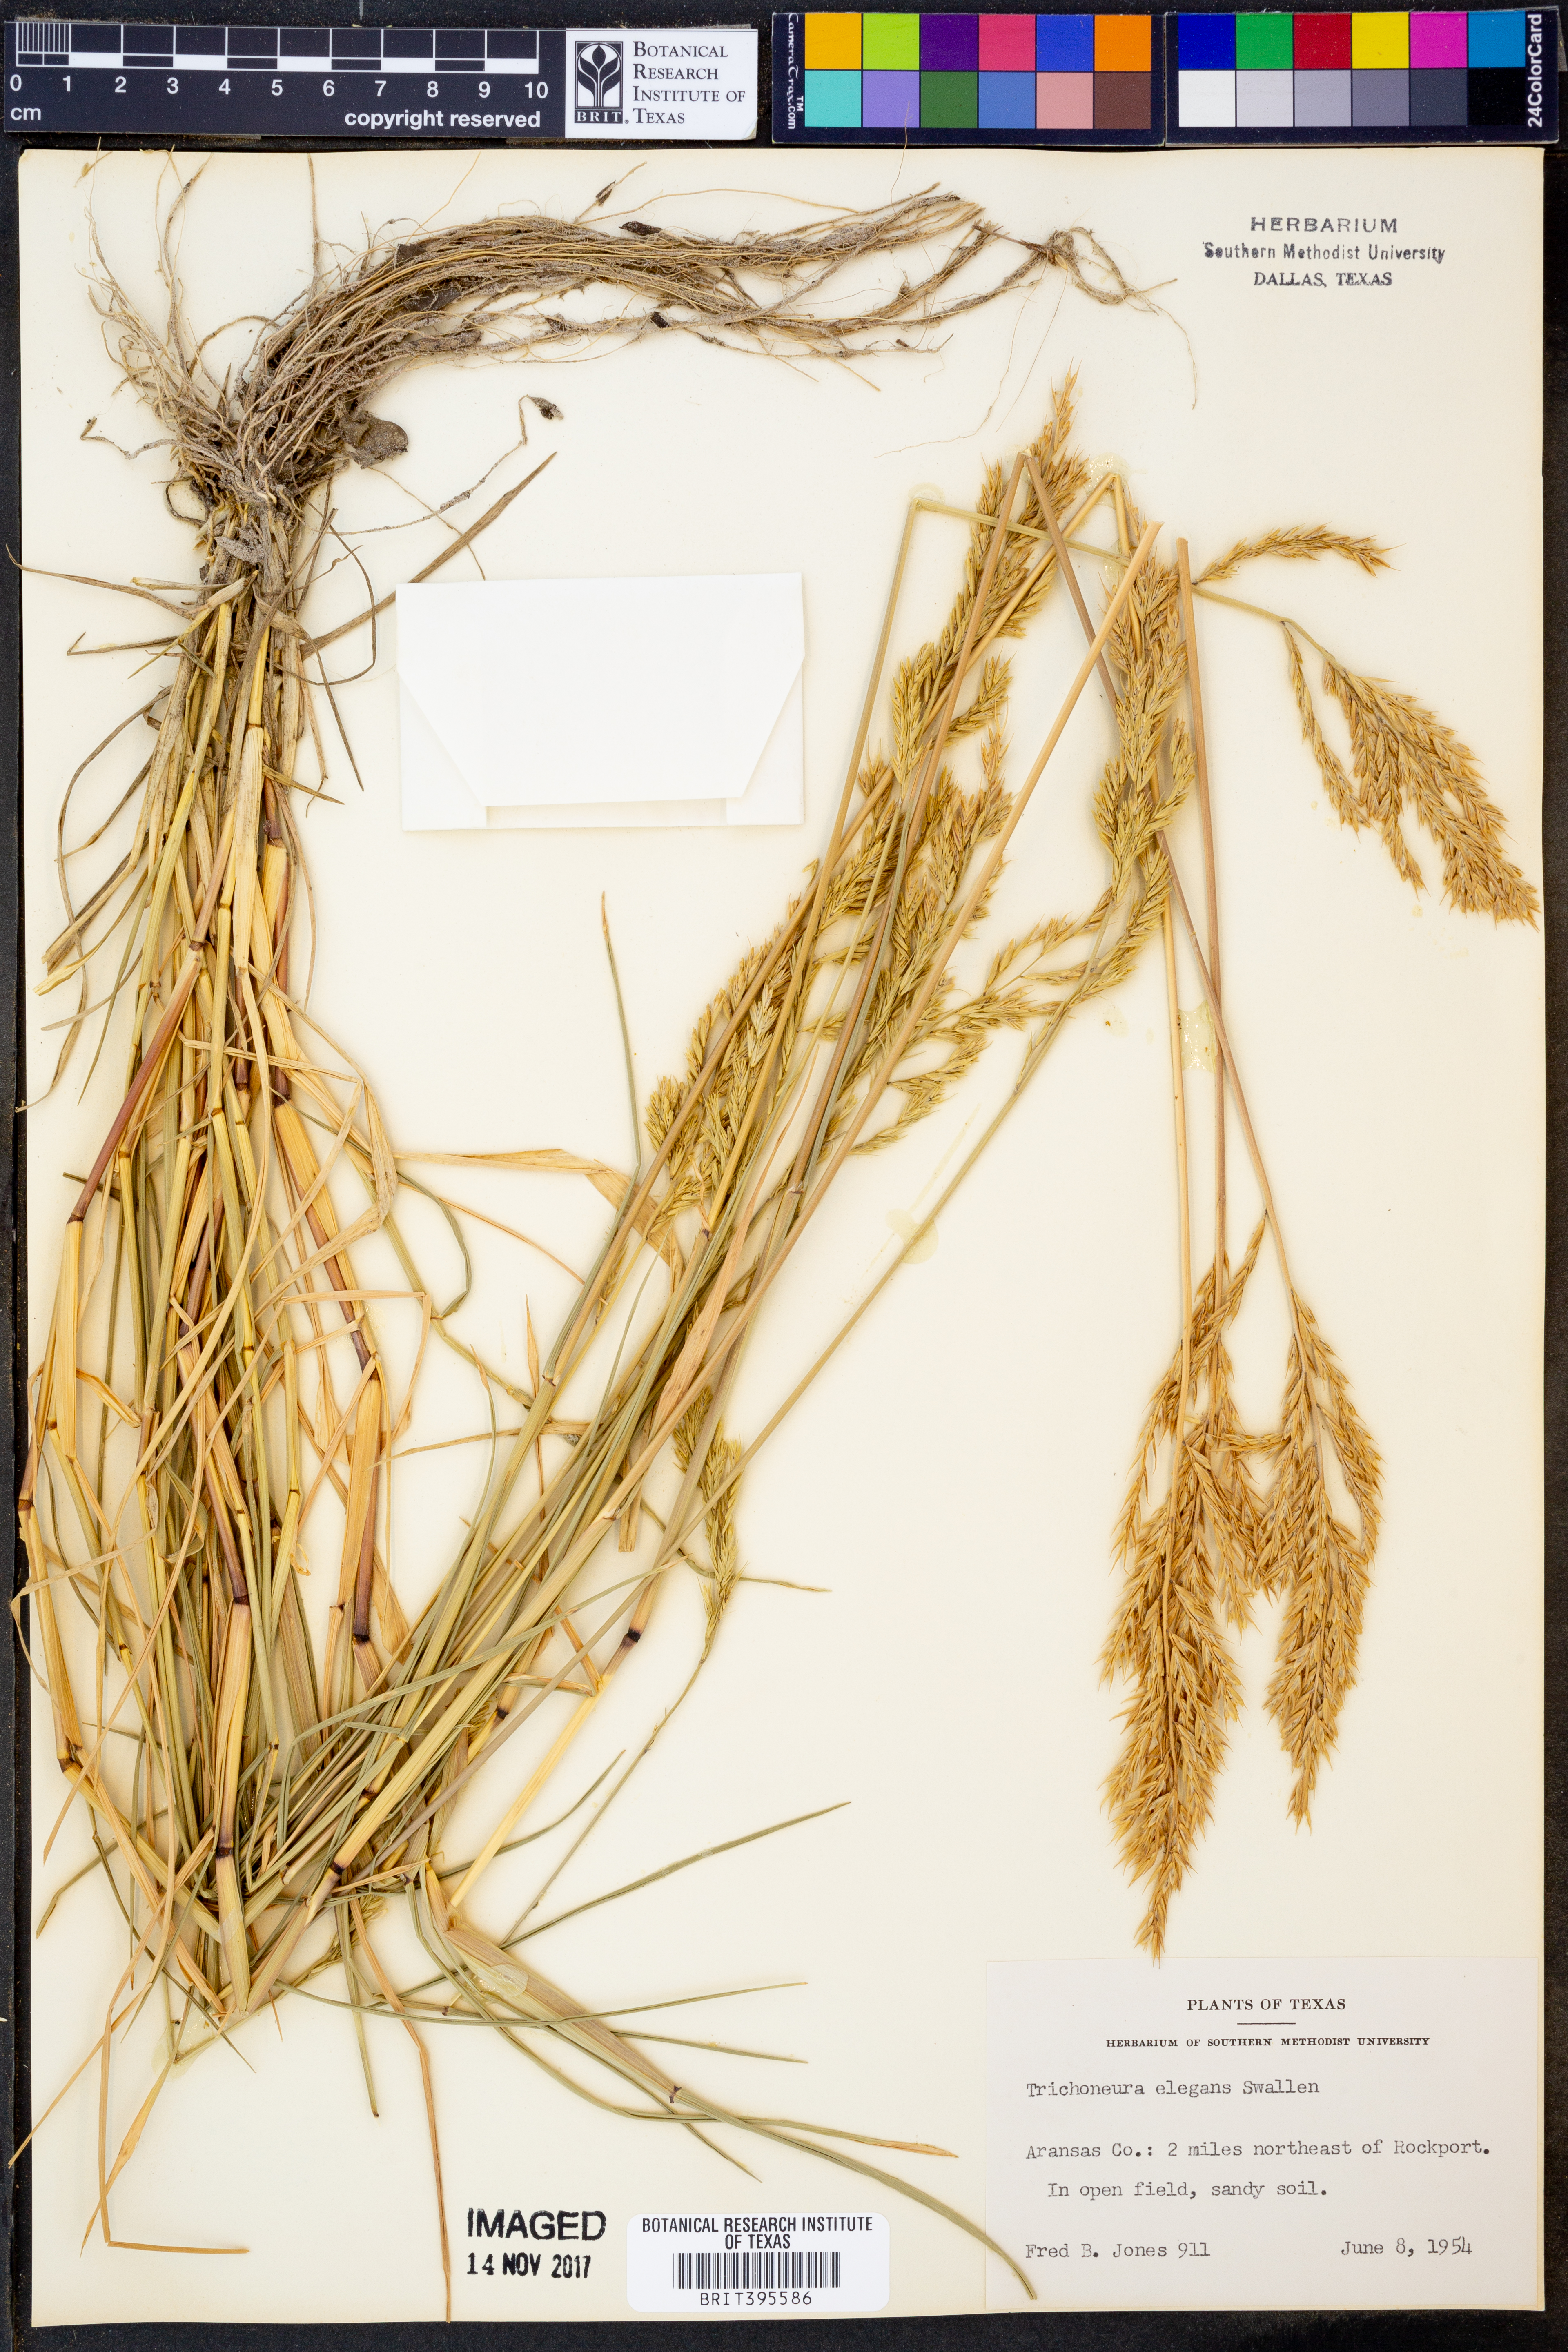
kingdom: Plantae
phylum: Tracheophyta
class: Liliopsida
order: Poales
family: Poaceae
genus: Trichoneura
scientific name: Trichoneura elegans
